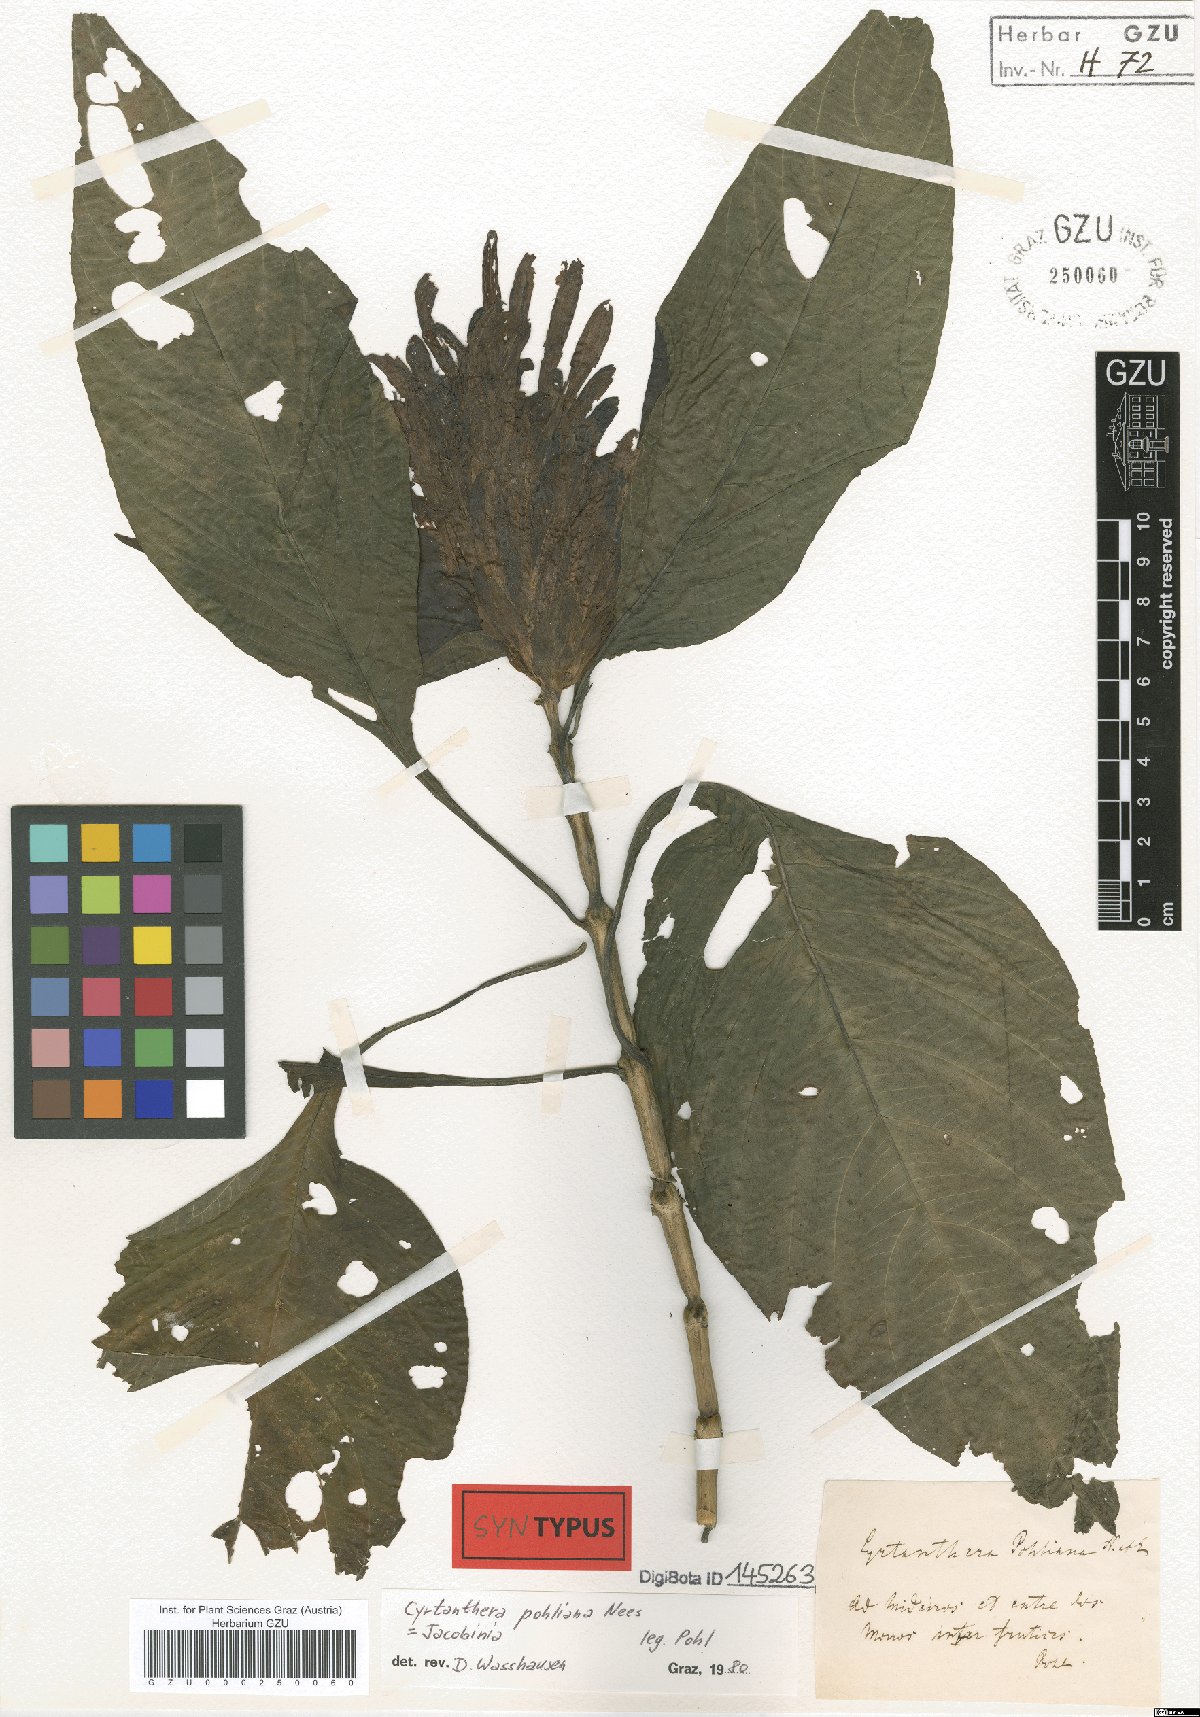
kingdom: Plantae
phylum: Tracheophyta
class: Magnoliopsida
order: Lamiales
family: Acanthaceae
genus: Justicia
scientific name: Justicia carnea
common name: Brazilian-plume
